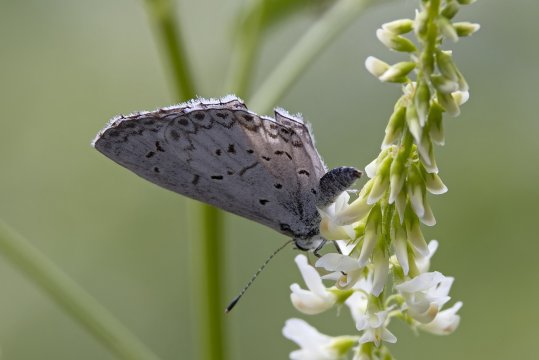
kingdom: Animalia
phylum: Arthropoda
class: Insecta
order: Lepidoptera
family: Lycaenidae
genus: Celastrina
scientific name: Celastrina lucia
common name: Northern Spring Azure
